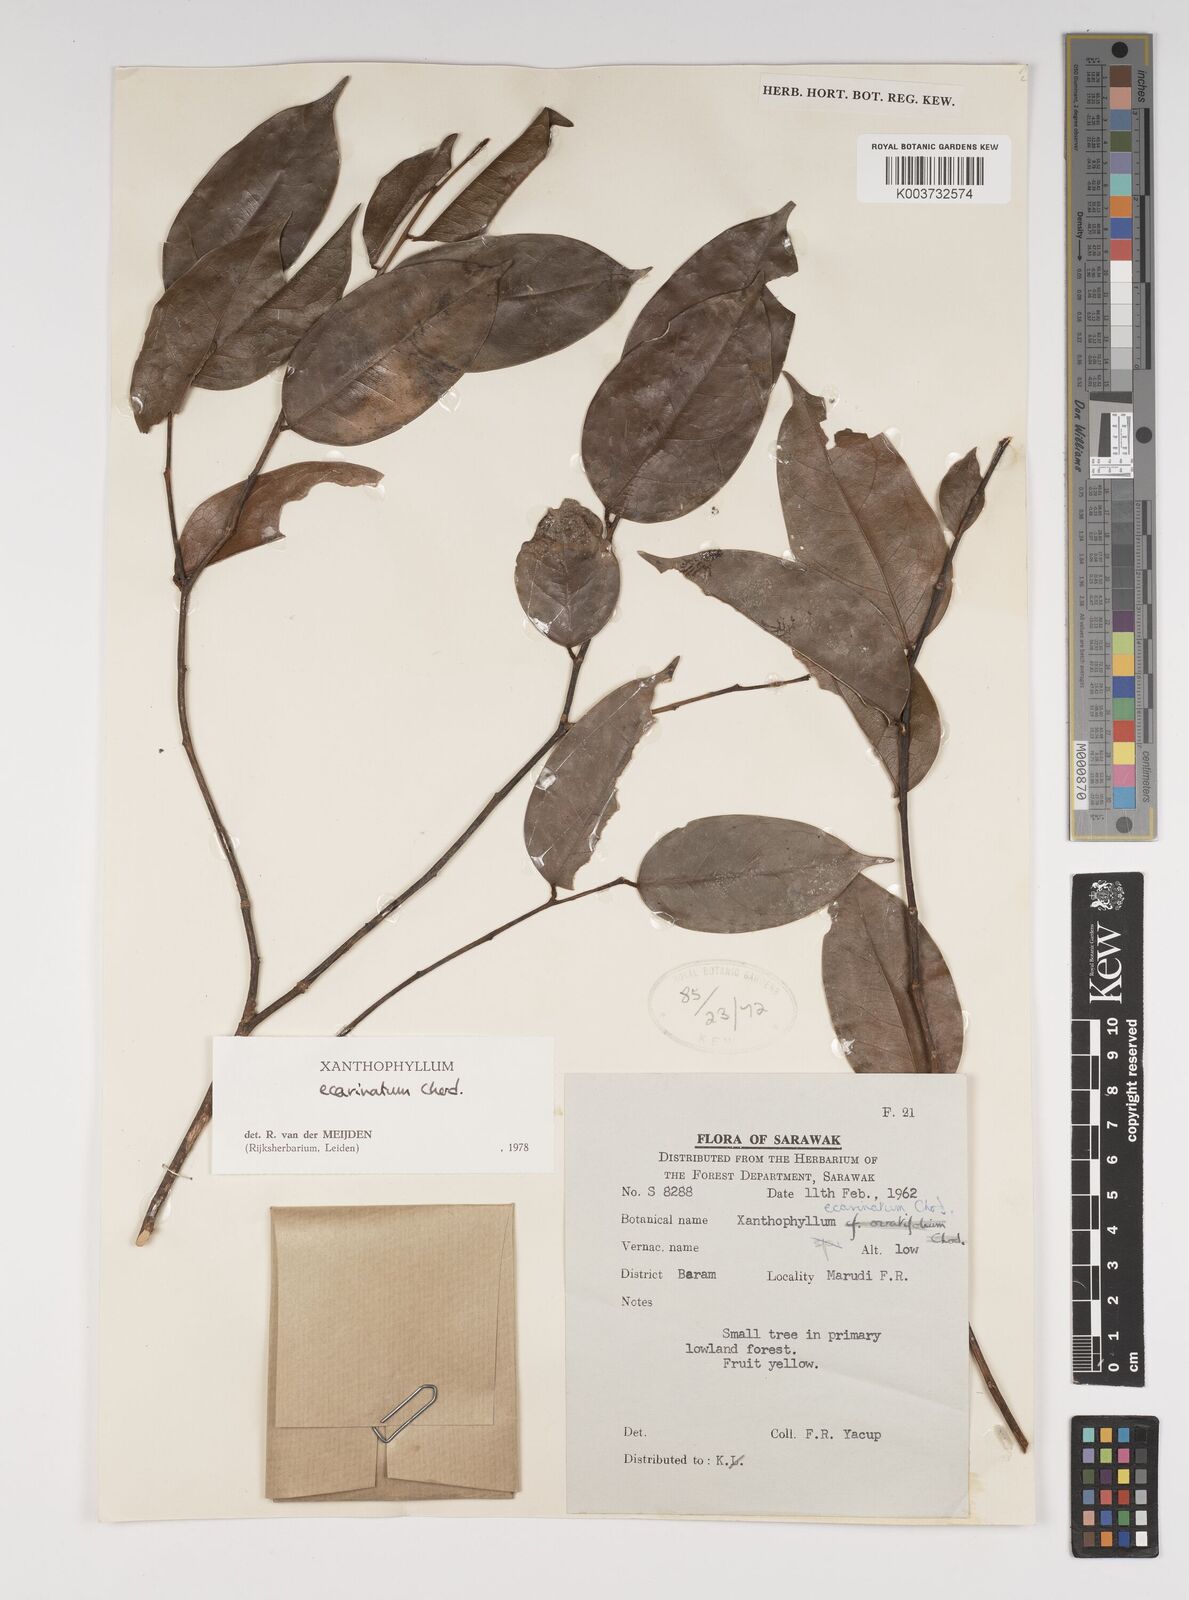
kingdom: Plantae
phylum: Tracheophyta
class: Magnoliopsida
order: Fabales
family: Polygalaceae
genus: Xanthophyllum
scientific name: Xanthophyllum ecarinatum
